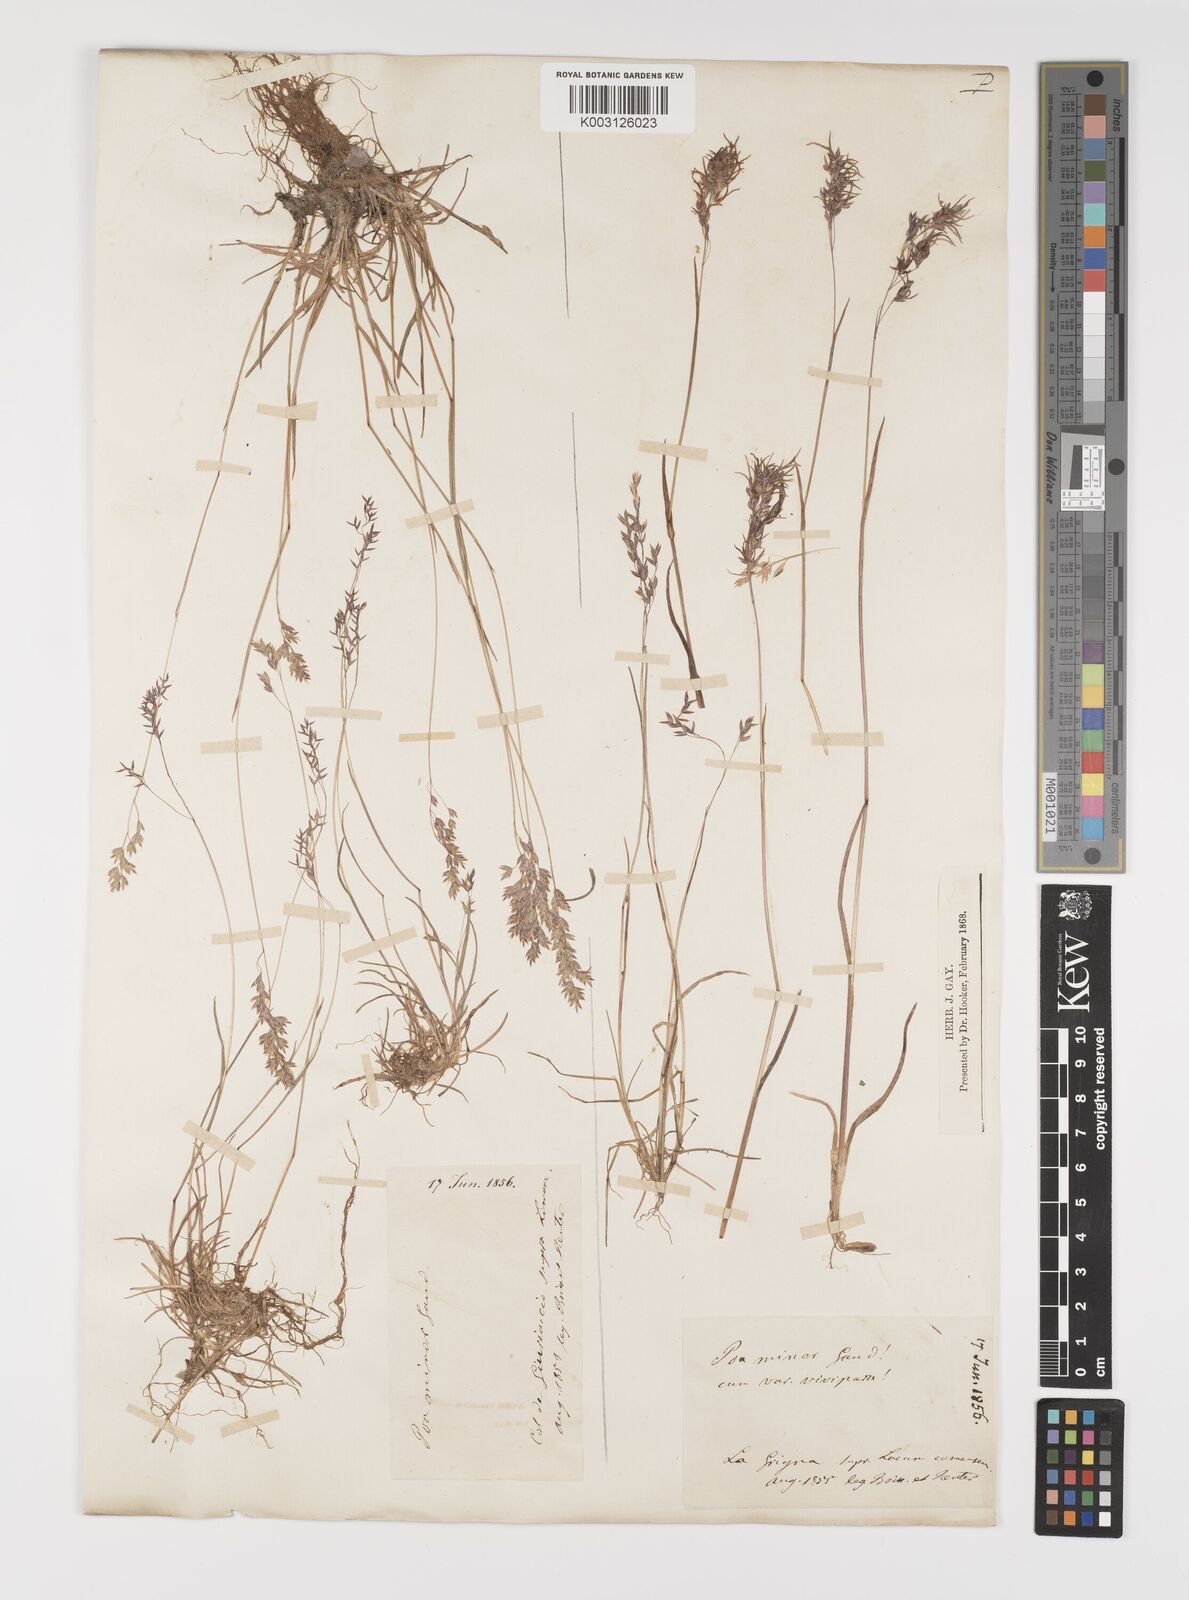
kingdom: Plantae
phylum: Tracheophyta
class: Liliopsida
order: Poales
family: Poaceae
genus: Poa
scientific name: Poa minor
